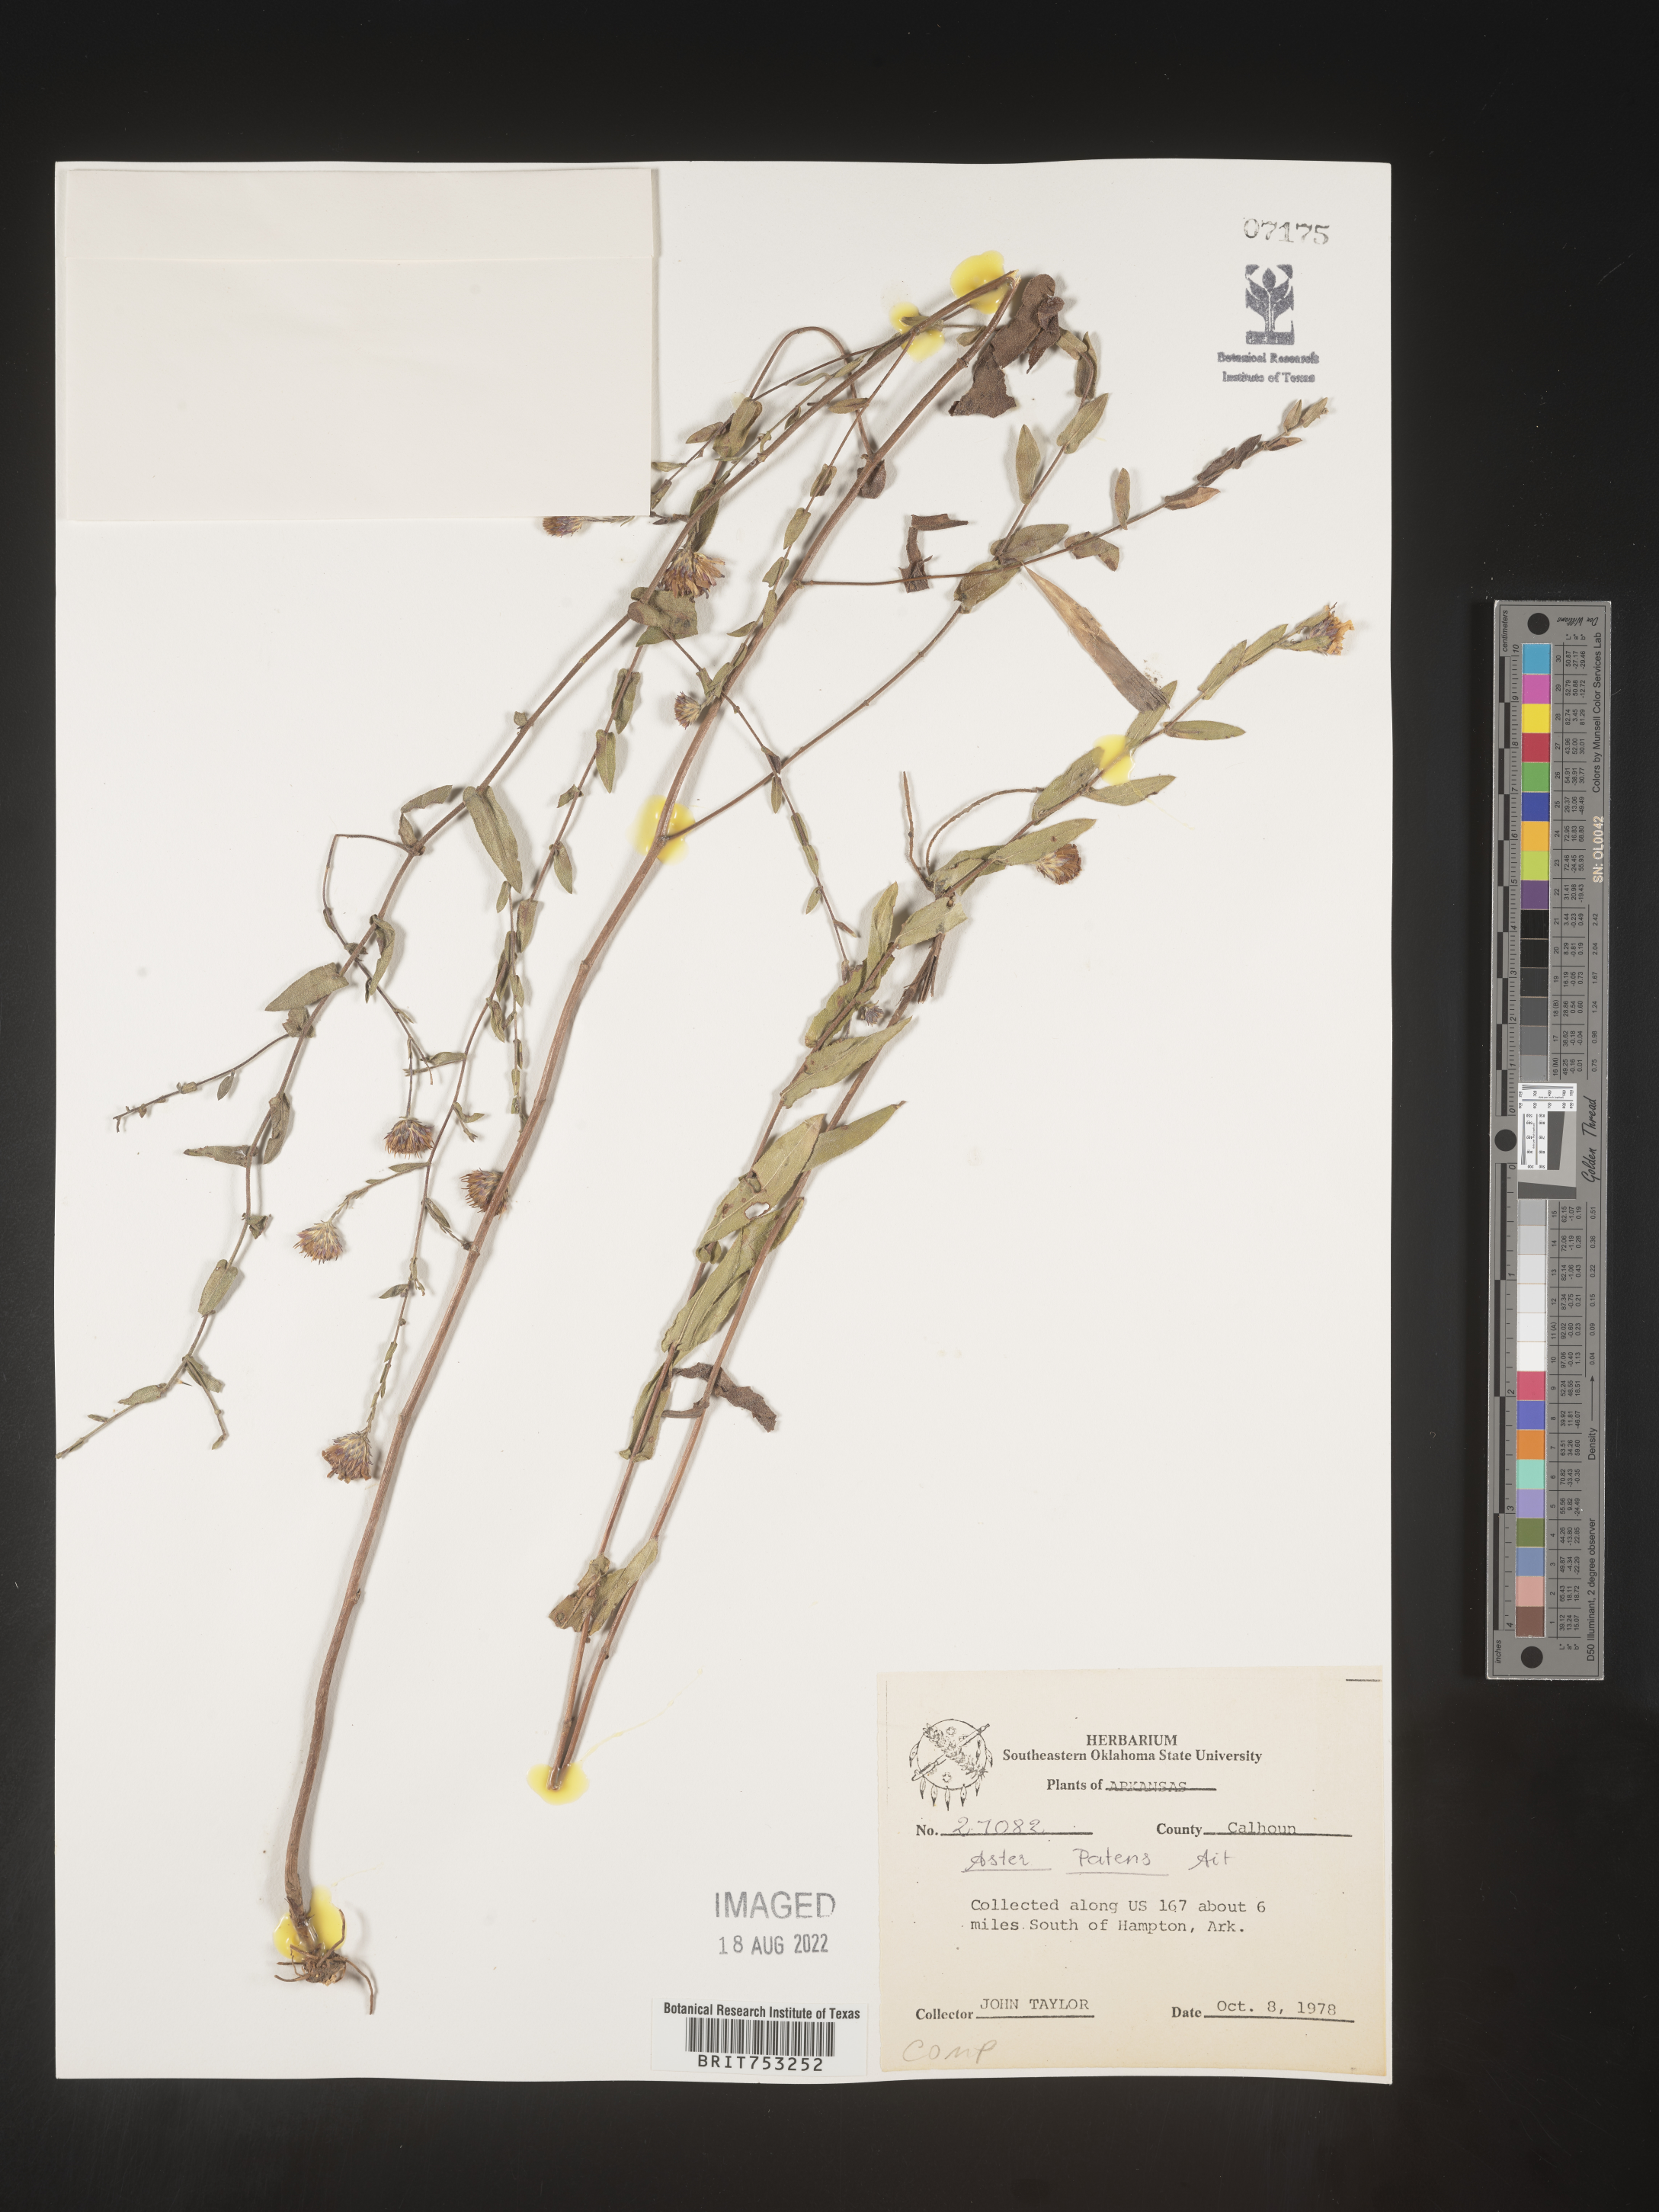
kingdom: Plantae
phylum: Tracheophyta
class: Magnoliopsida
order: Asterales
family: Asteraceae
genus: Symphyotrichum
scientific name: Symphyotrichum patens
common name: Late purple aster
